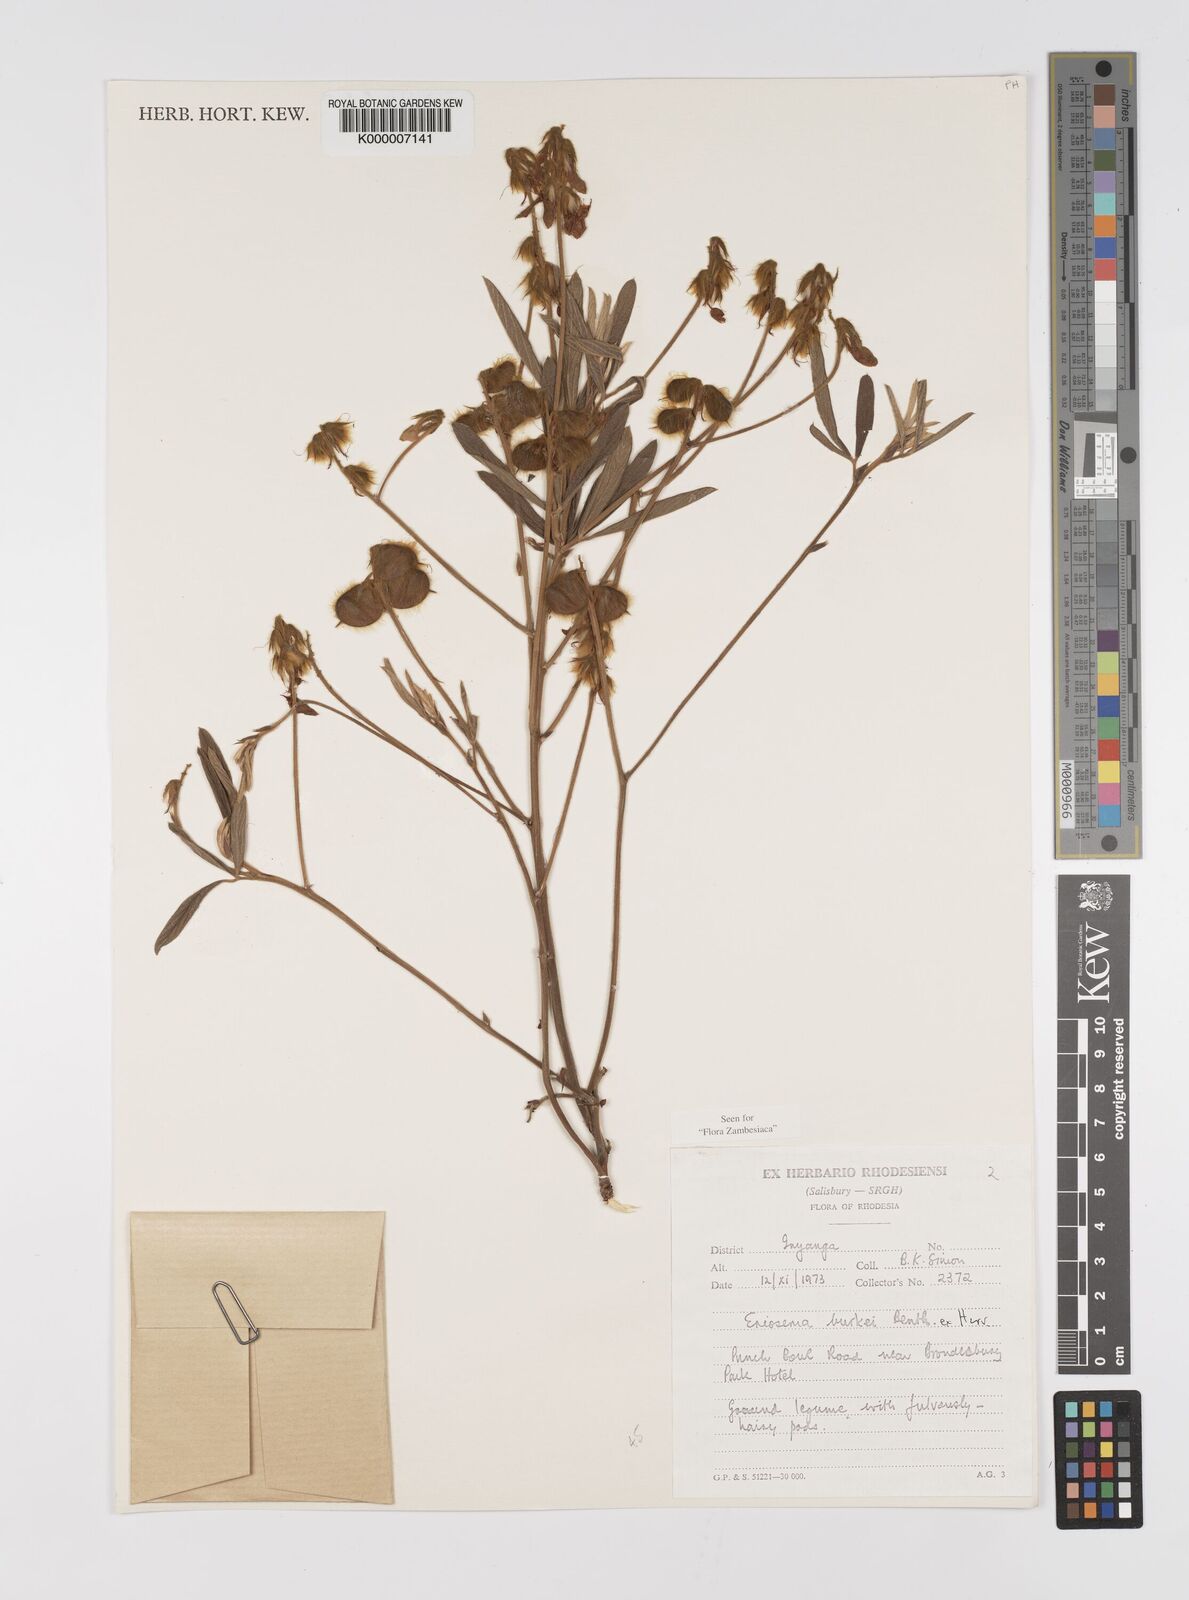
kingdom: Plantae
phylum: Tracheophyta
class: Magnoliopsida
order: Fabales
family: Fabaceae
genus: Eriosema
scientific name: Eriosema burkei
